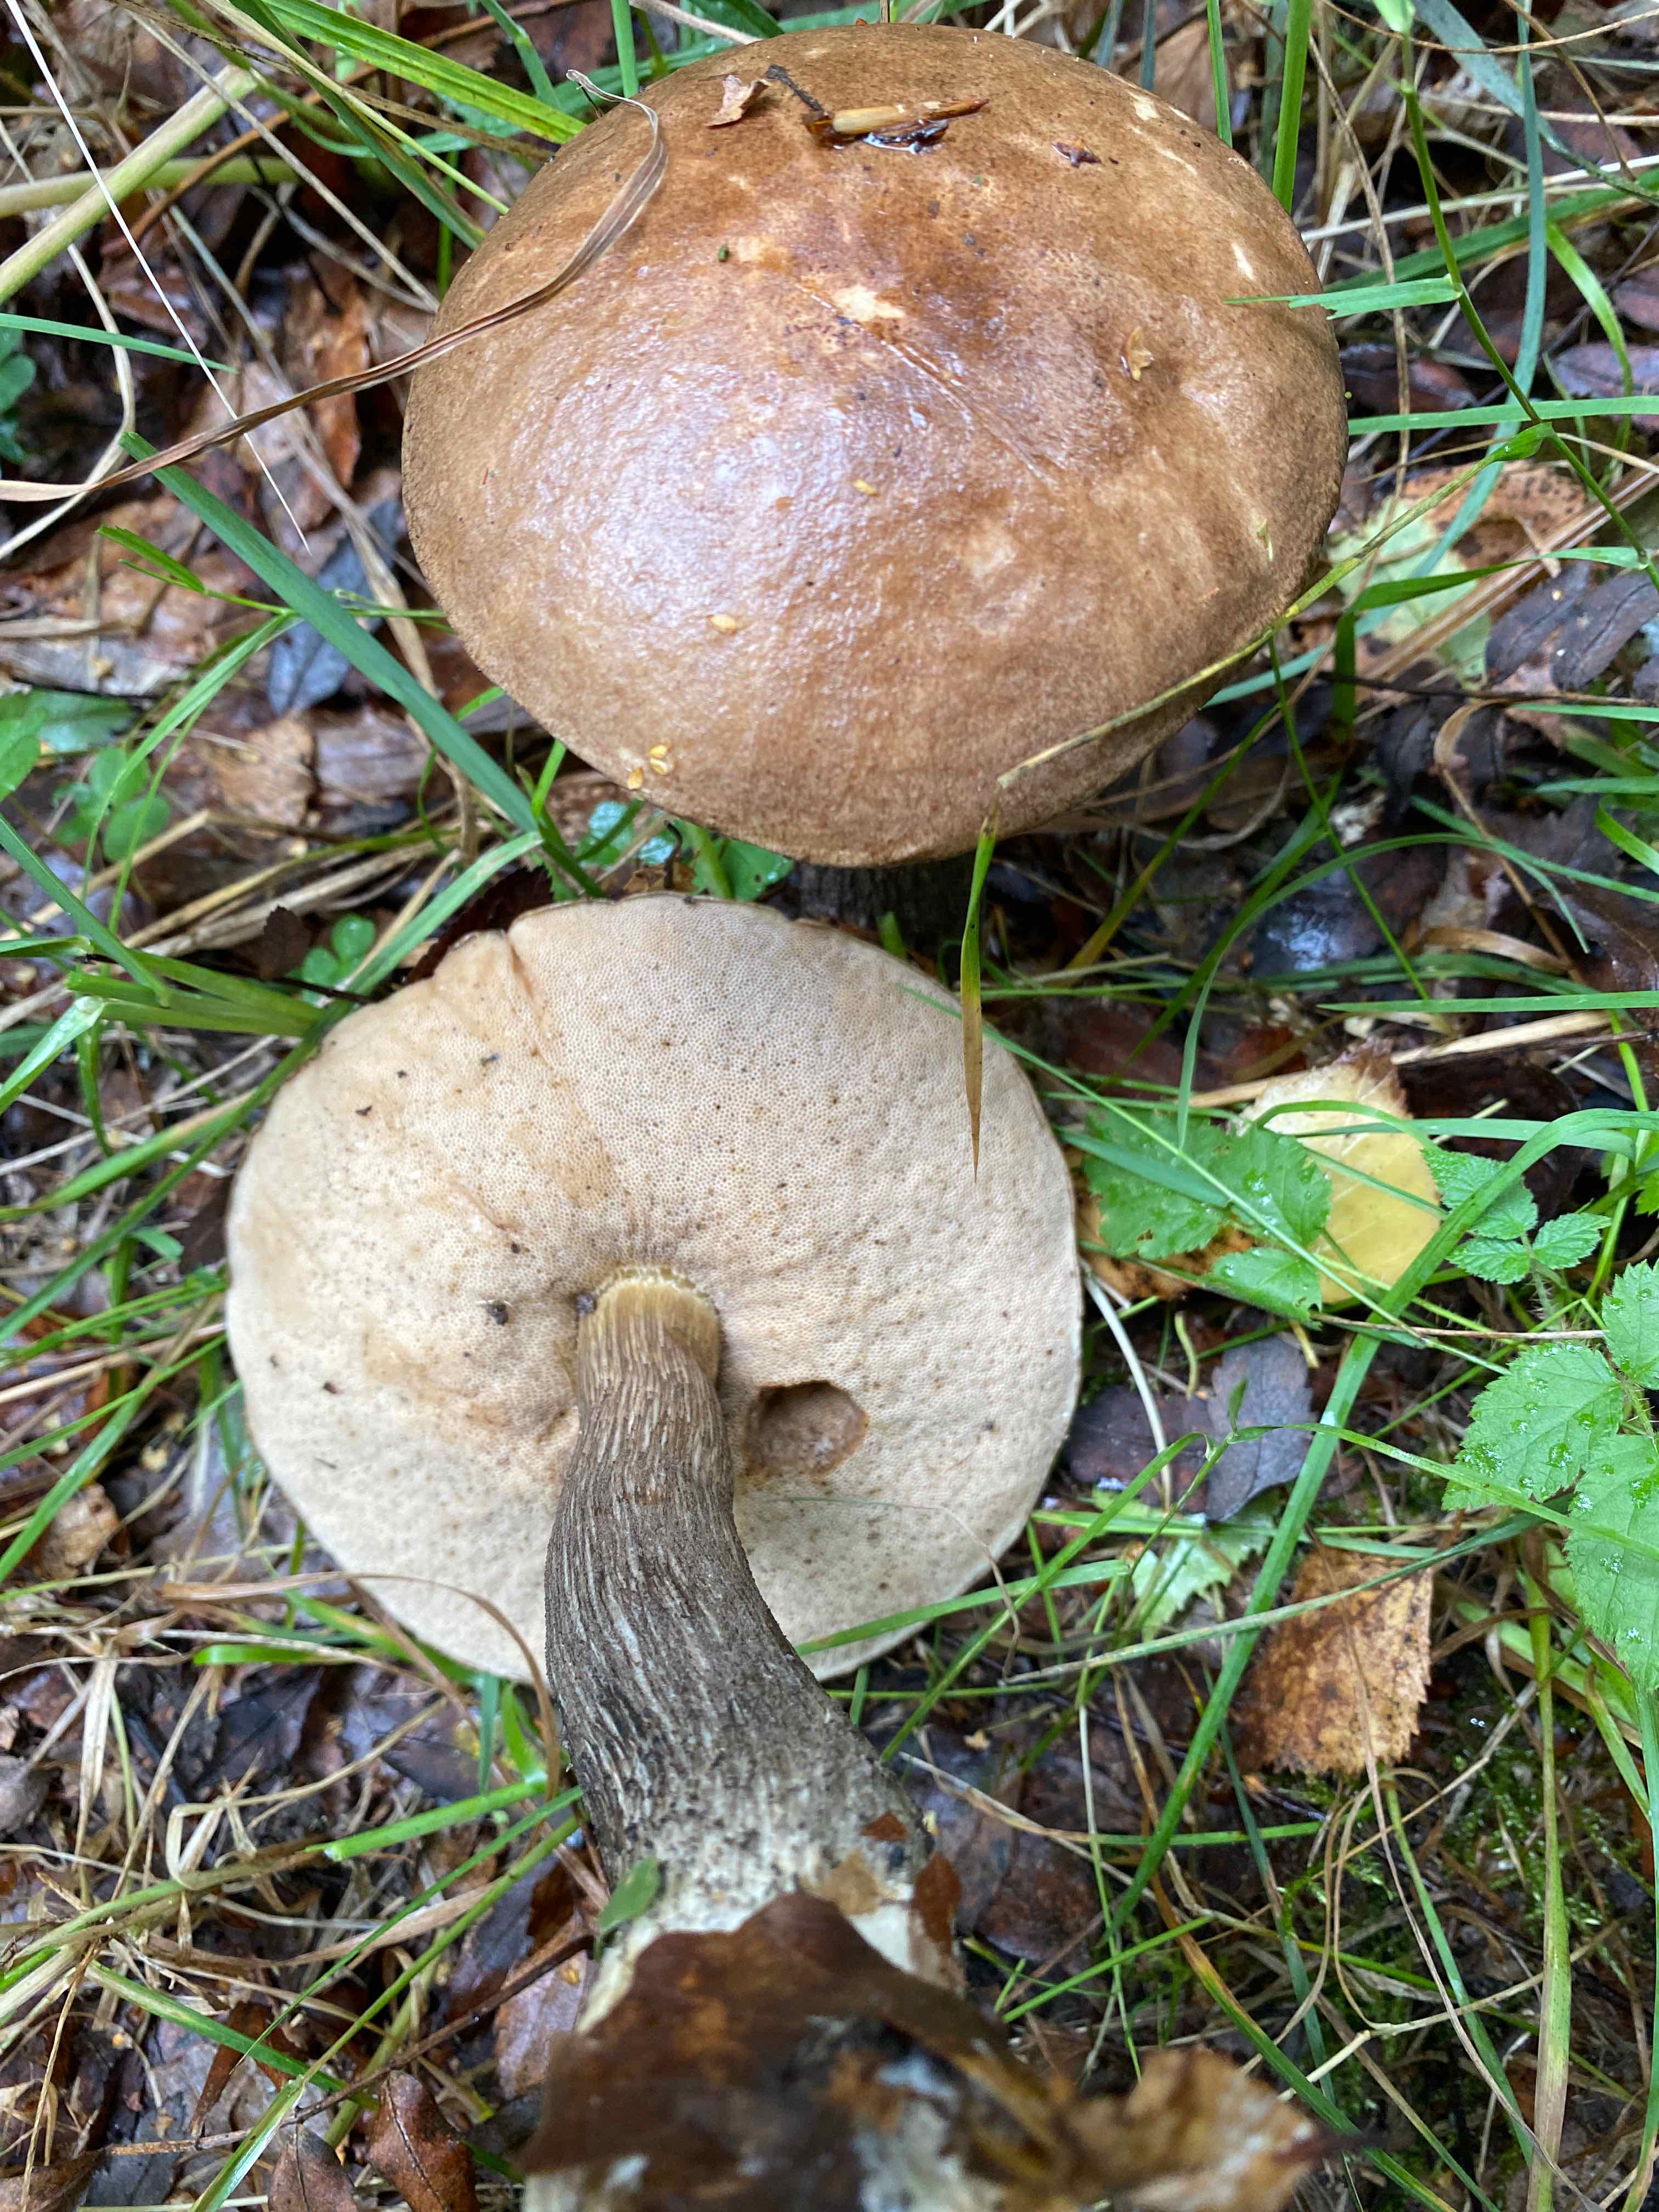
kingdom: Fungi
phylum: Basidiomycota
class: Agaricomycetes
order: Boletales
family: Boletaceae
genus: Leccinum
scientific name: Leccinum scabrum
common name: brun skælrørhat
